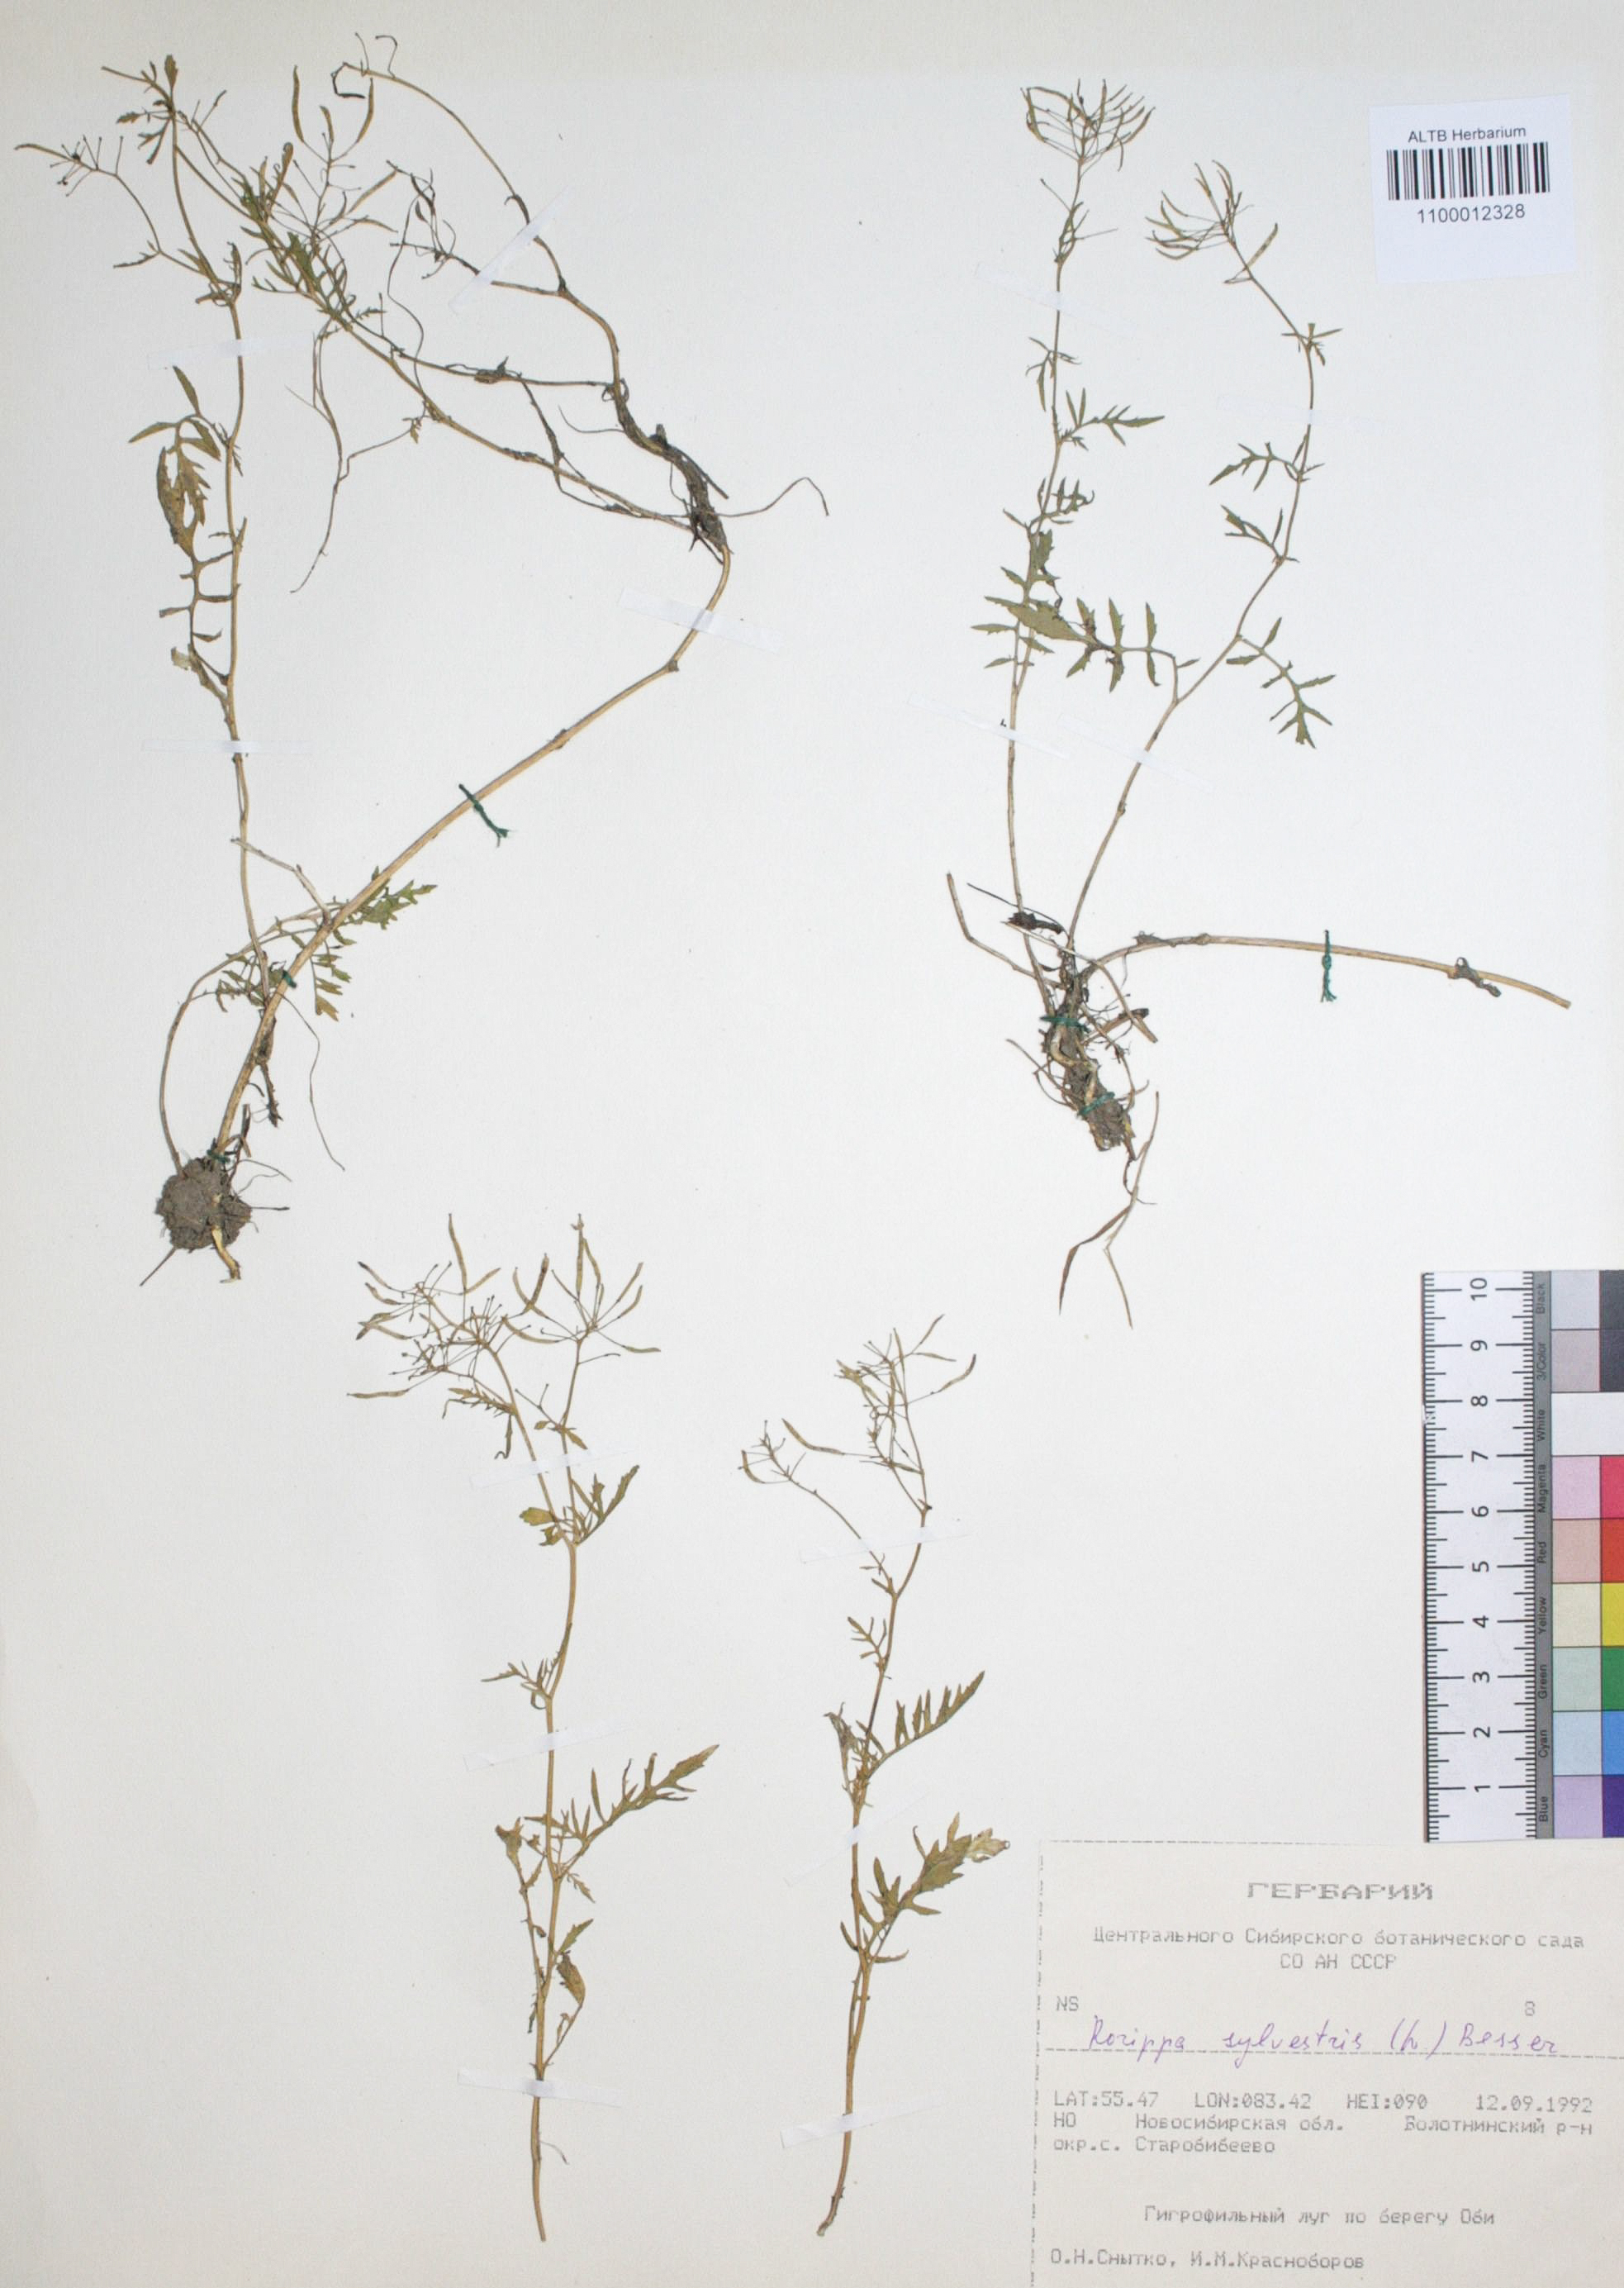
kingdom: Plantae
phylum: Tracheophyta
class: Magnoliopsida
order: Brassicales
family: Brassicaceae
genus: Rorippa
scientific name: Rorippa sylvestris
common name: Creeping yellowcress
